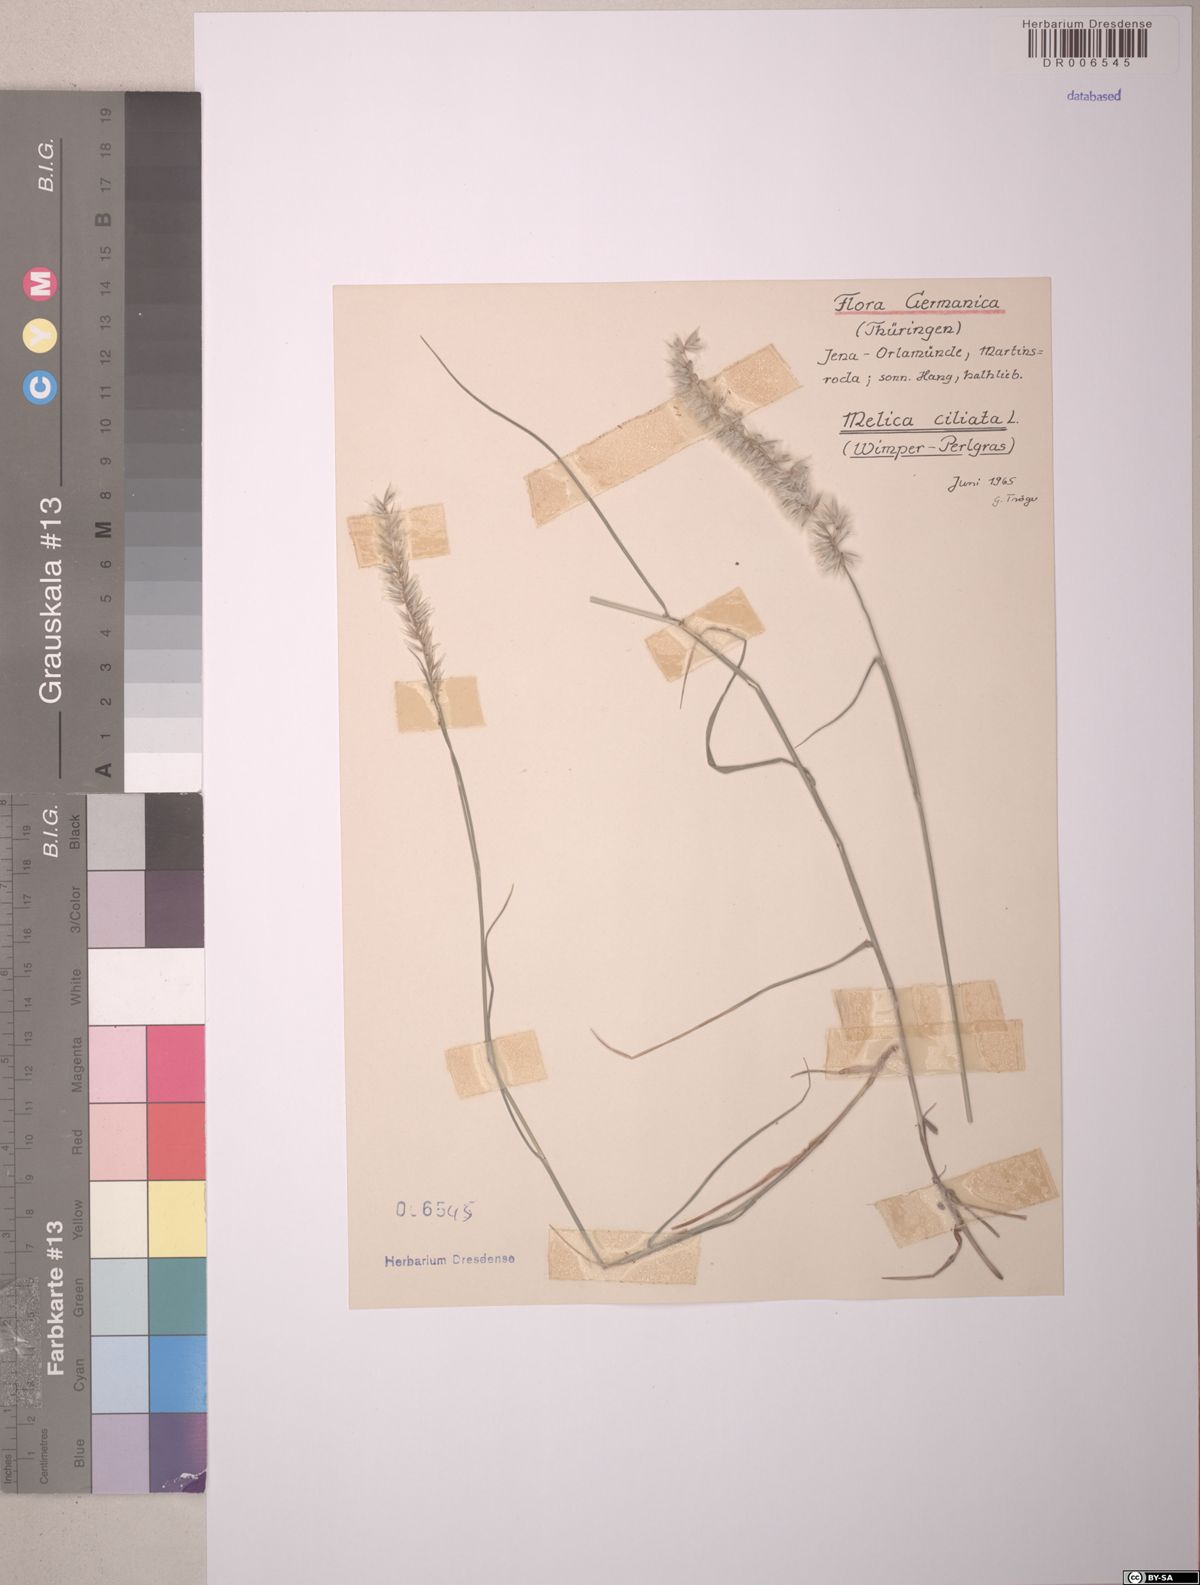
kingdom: Plantae
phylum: Tracheophyta
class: Liliopsida
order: Poales
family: Poaceae
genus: Melica
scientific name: Melica ciliata
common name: Hairy melicgrass
